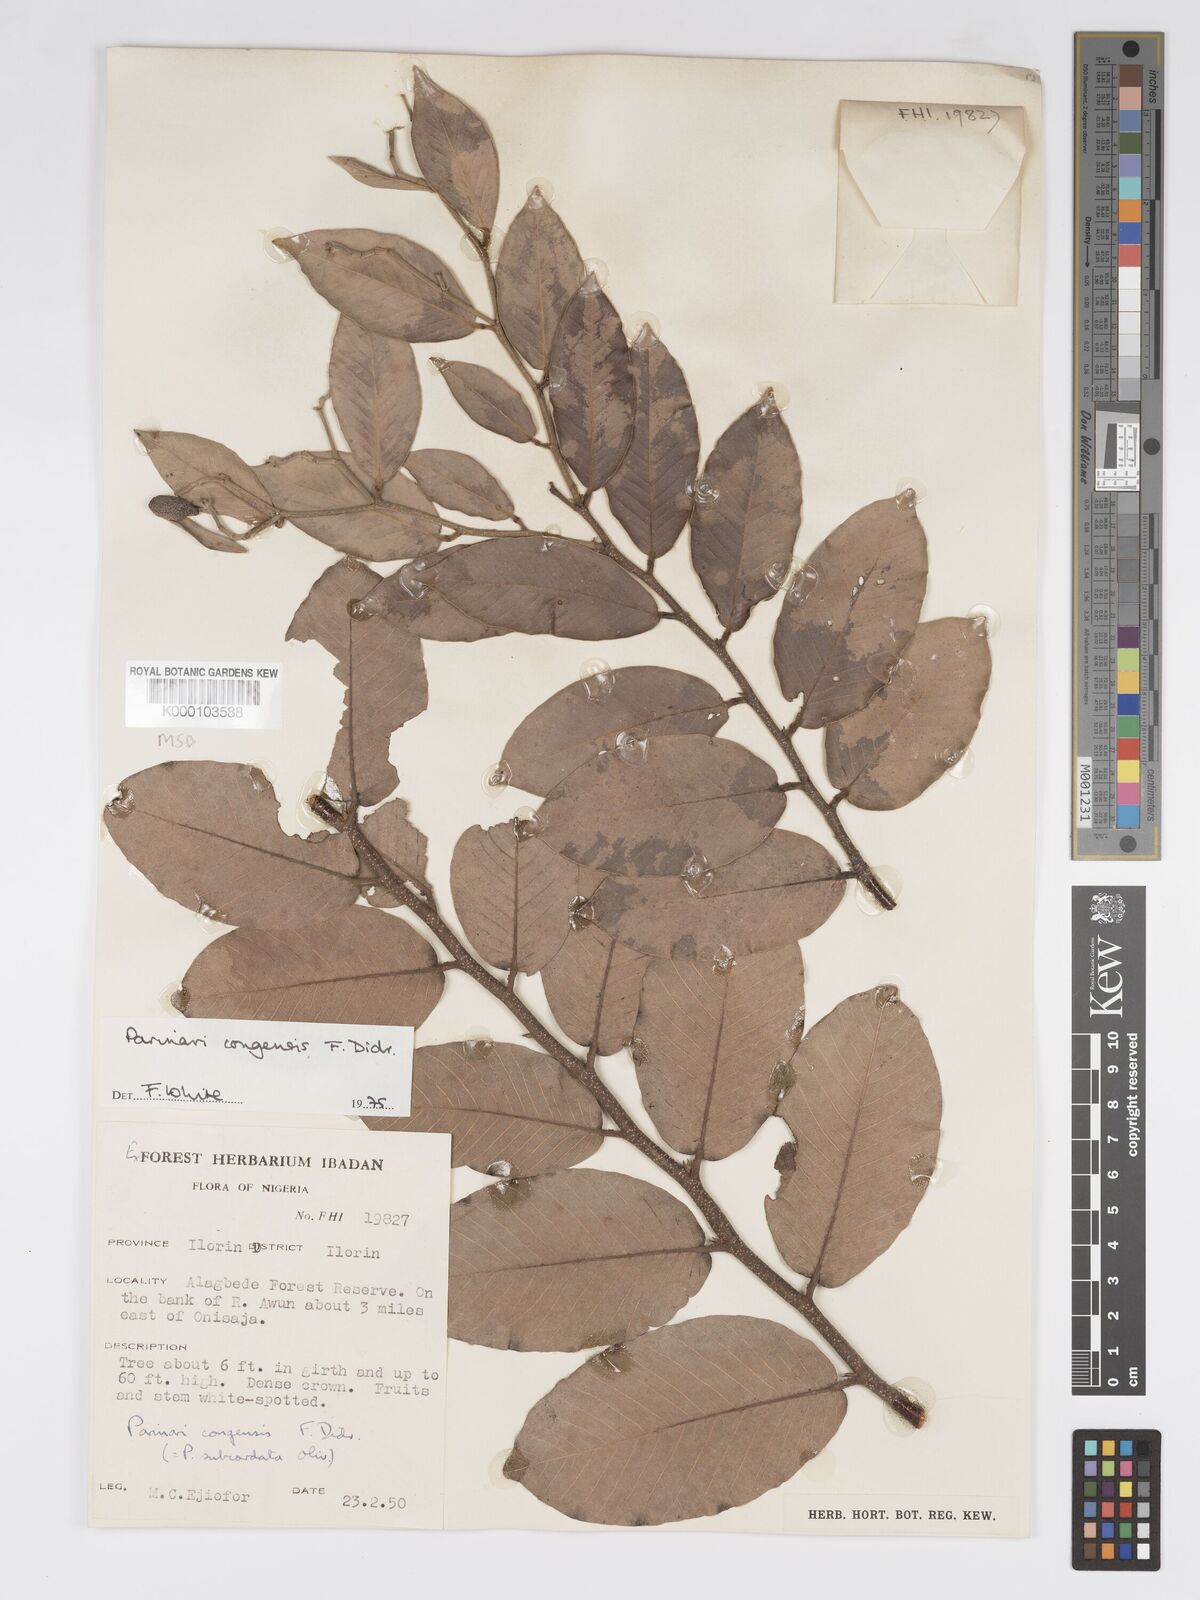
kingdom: Plantae
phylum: Tracheophyta
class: Magnoliopsida
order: Malpighiales
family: Chrysobalanaceae
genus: Parinari
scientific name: Parinari congensis
